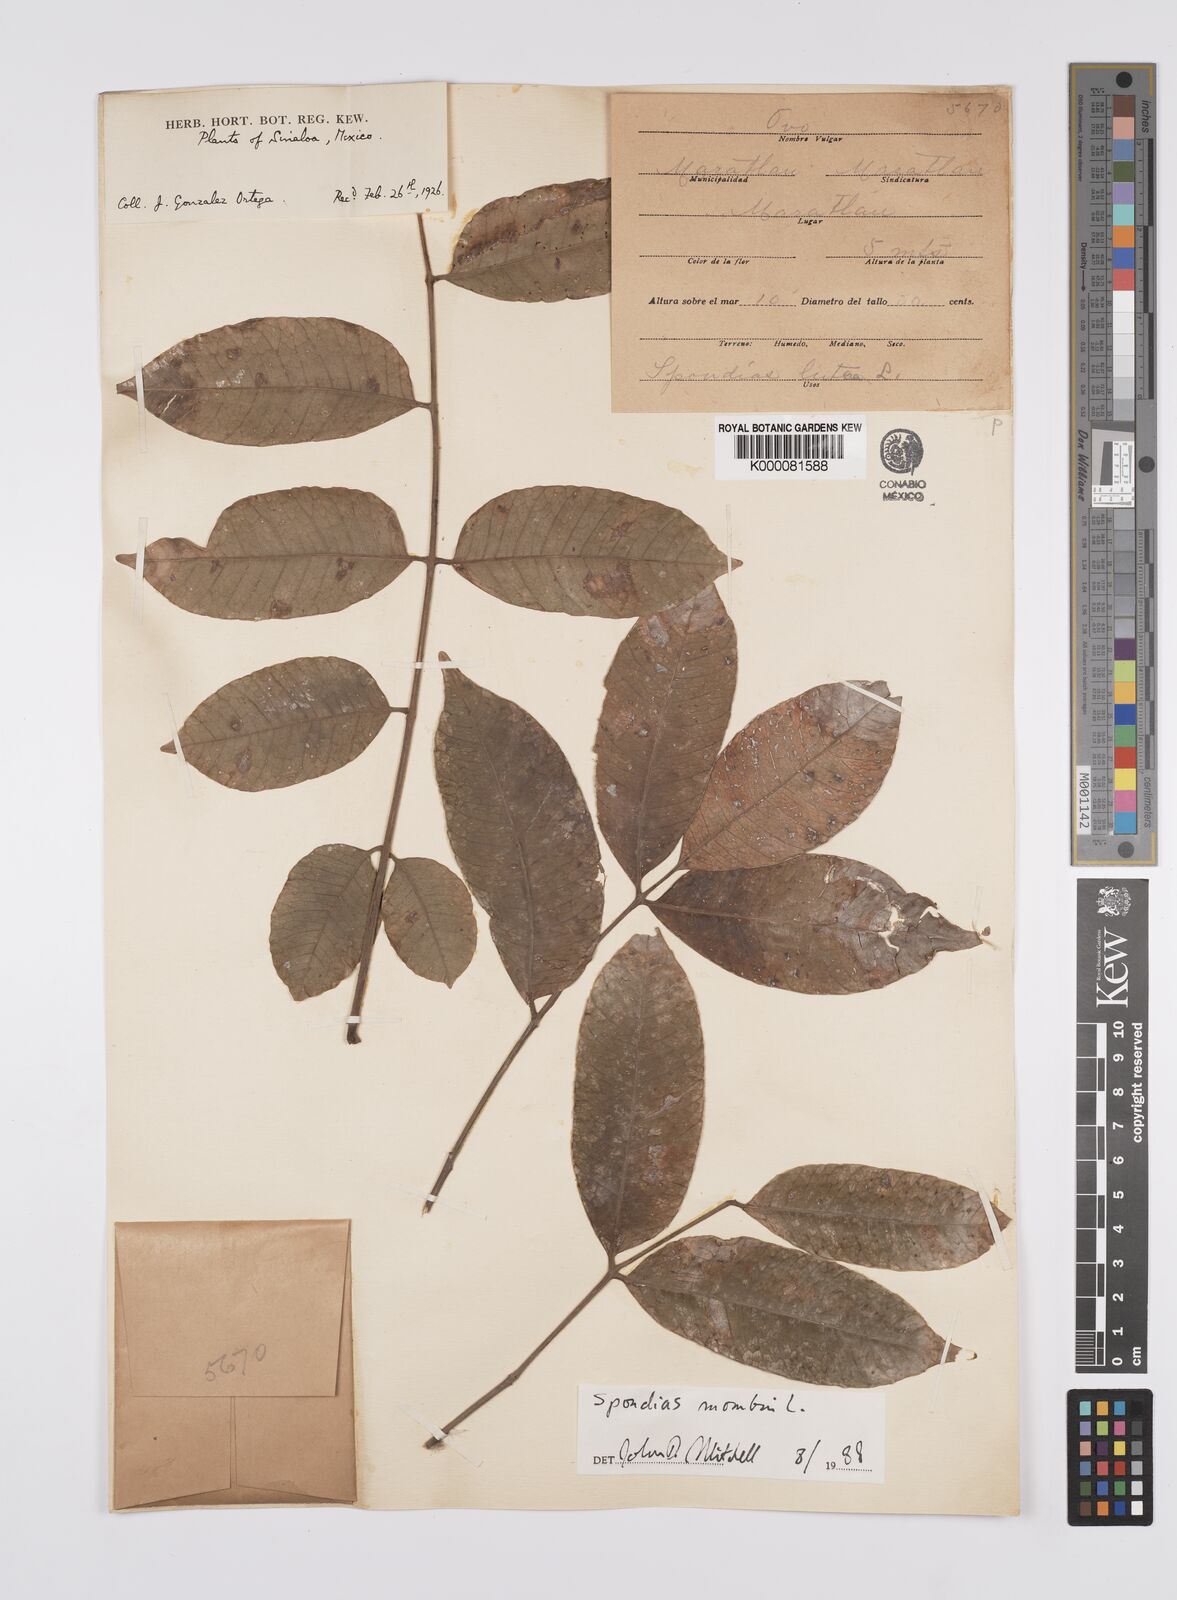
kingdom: Plantae
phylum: Tracheophyta
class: Magnoliopsida
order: Sapindales
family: Anacardiaceae
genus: Spondias
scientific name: Spondias mombin
